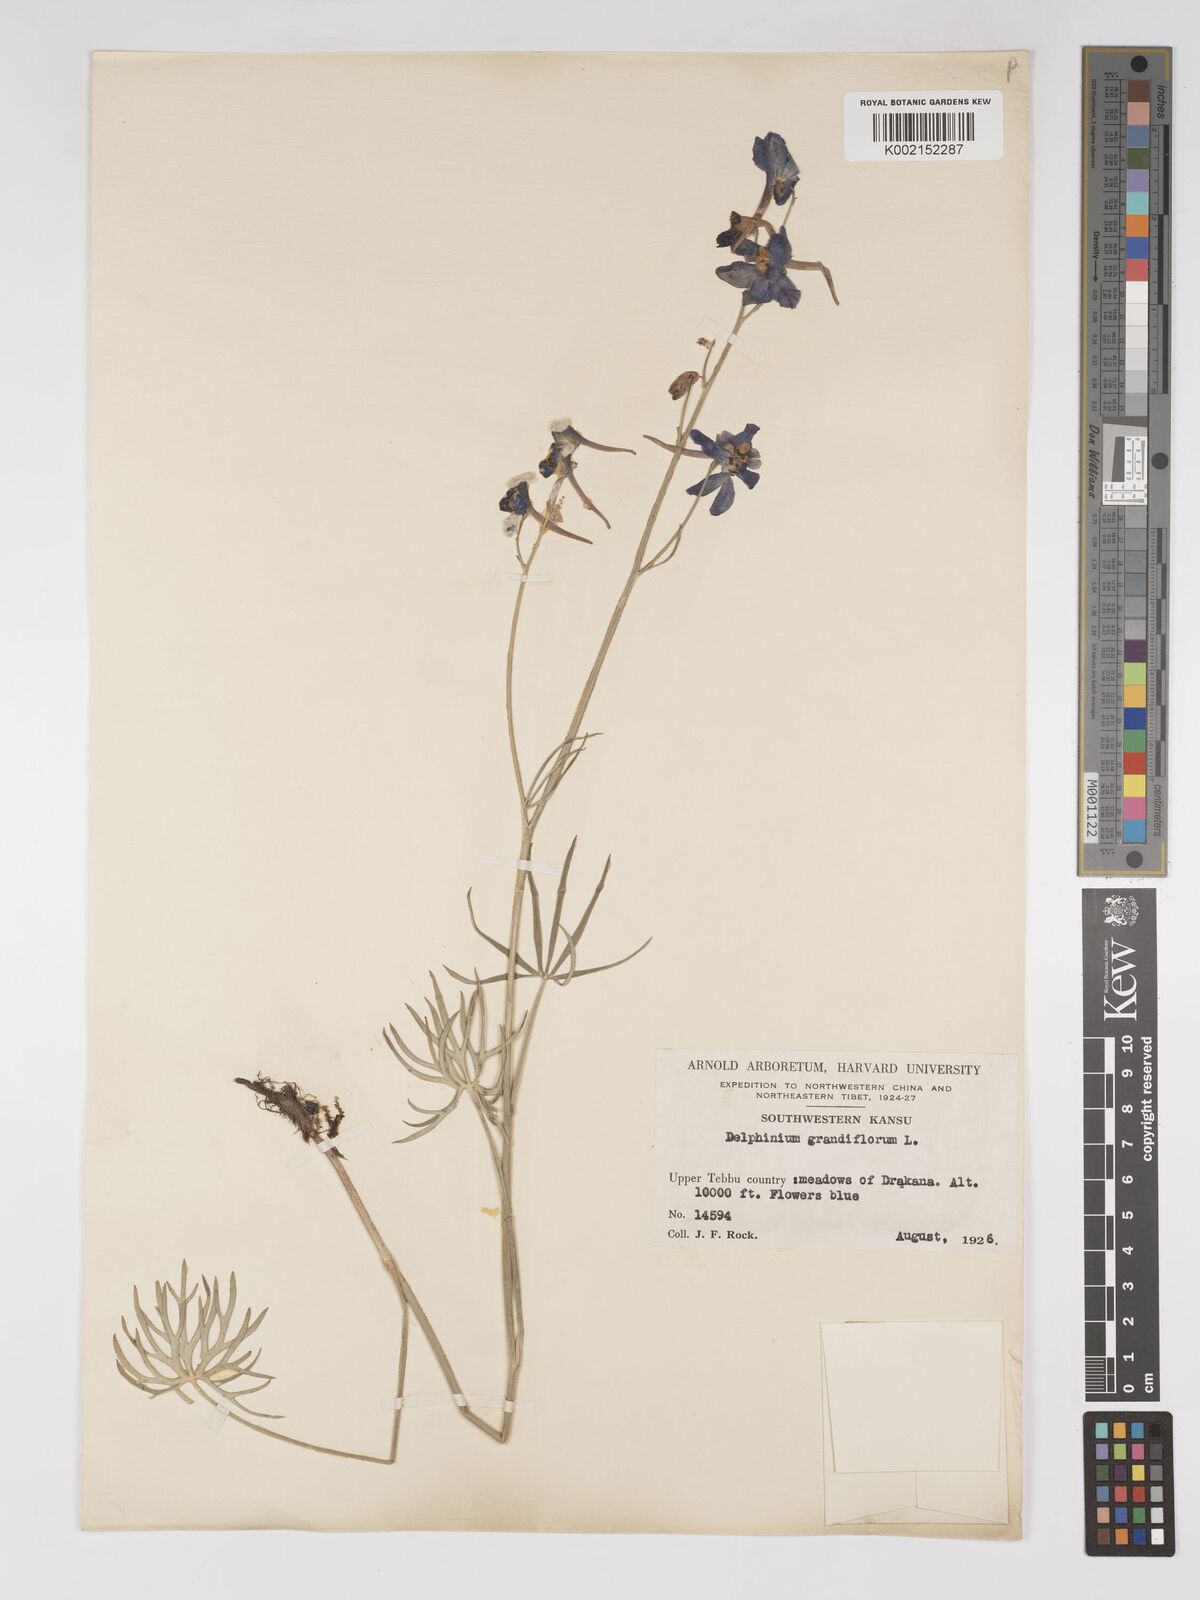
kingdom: Plantae
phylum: Tracheophyta
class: Magnoliopsida
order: Ranunculales
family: Ranunculaceae
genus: Delphinium
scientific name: Delphinium grandiflorum
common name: Siberian larkspur
